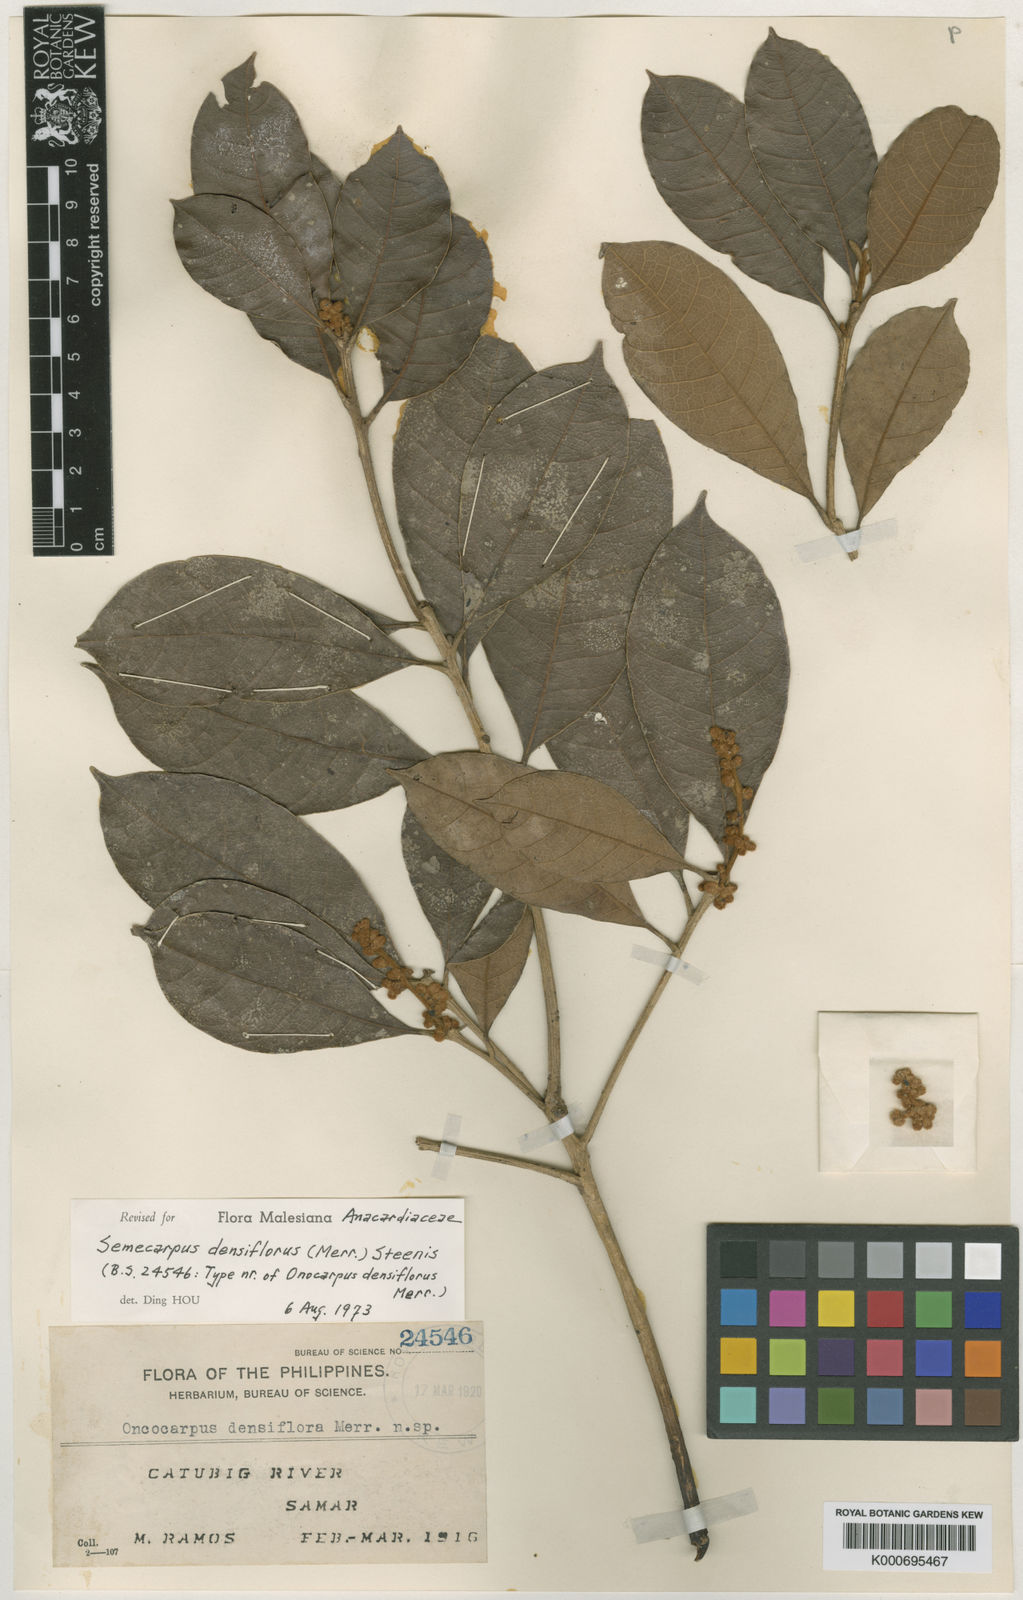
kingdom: Plantae
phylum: Tracheophyta
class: Magnoliopsida
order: Sapindales
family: Anacardiaceae
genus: Semecarpus
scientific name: Semecarpus densiflorus
